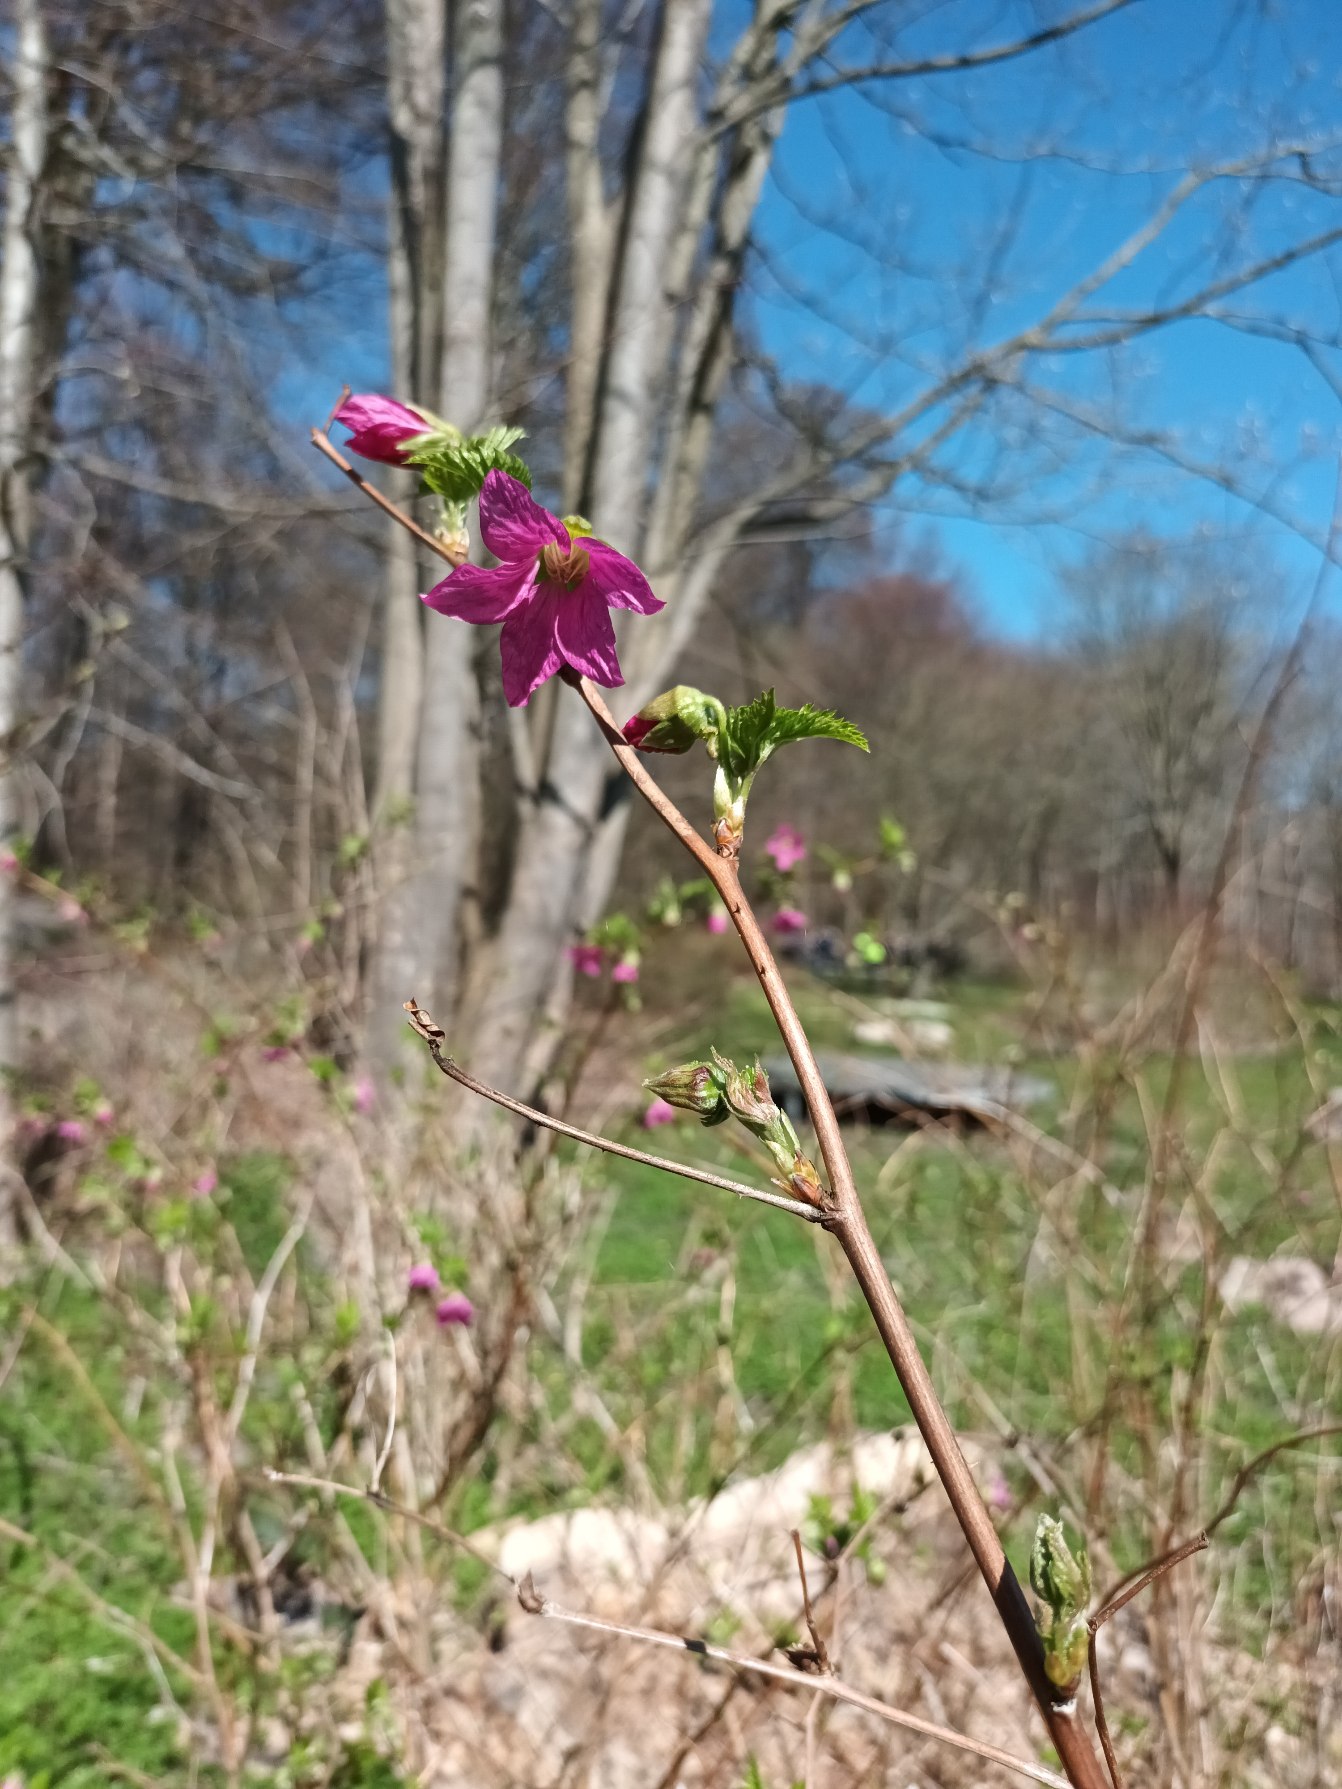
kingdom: Plantae
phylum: Tracheophyta
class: Magnoliopsida
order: Rosales
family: Rosaceae
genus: Rubus
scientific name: Rubus spectabilis
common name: Laksebær
